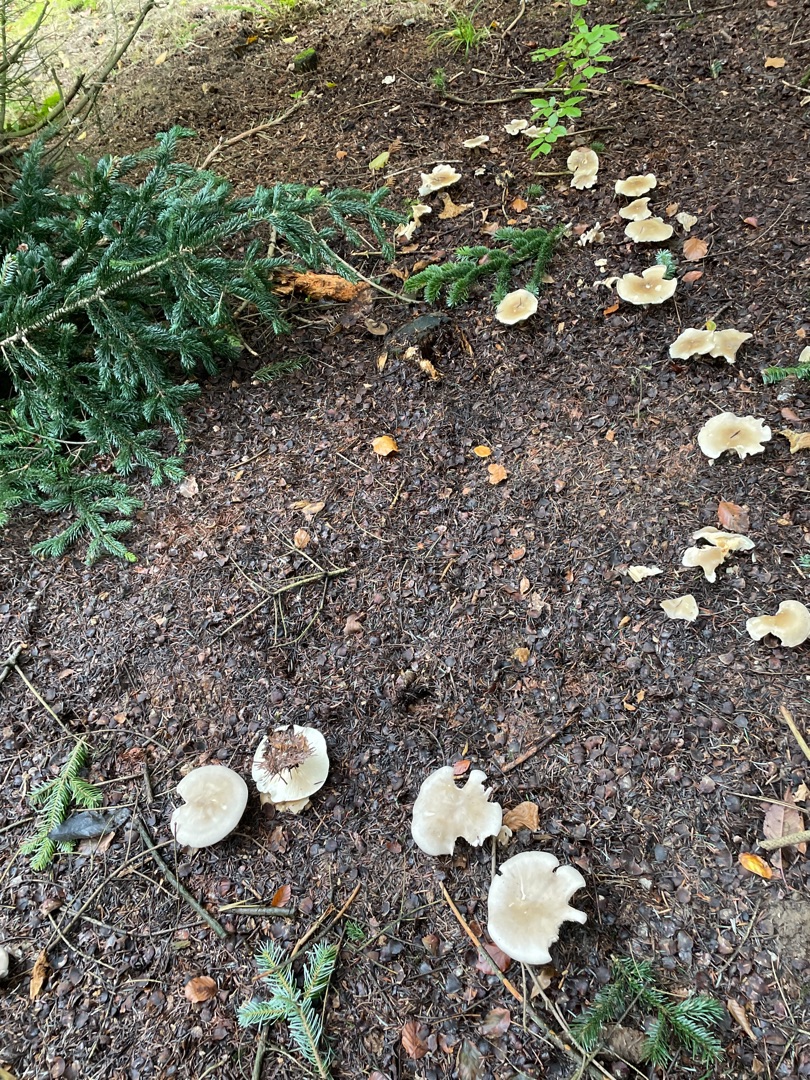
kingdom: Fungi
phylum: Basidiomycota
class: Agaricomycetes
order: Agaricales
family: Tricholomataceae
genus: Clitocybe
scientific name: Clitocybe nebularis
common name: Tåge-tragthat
